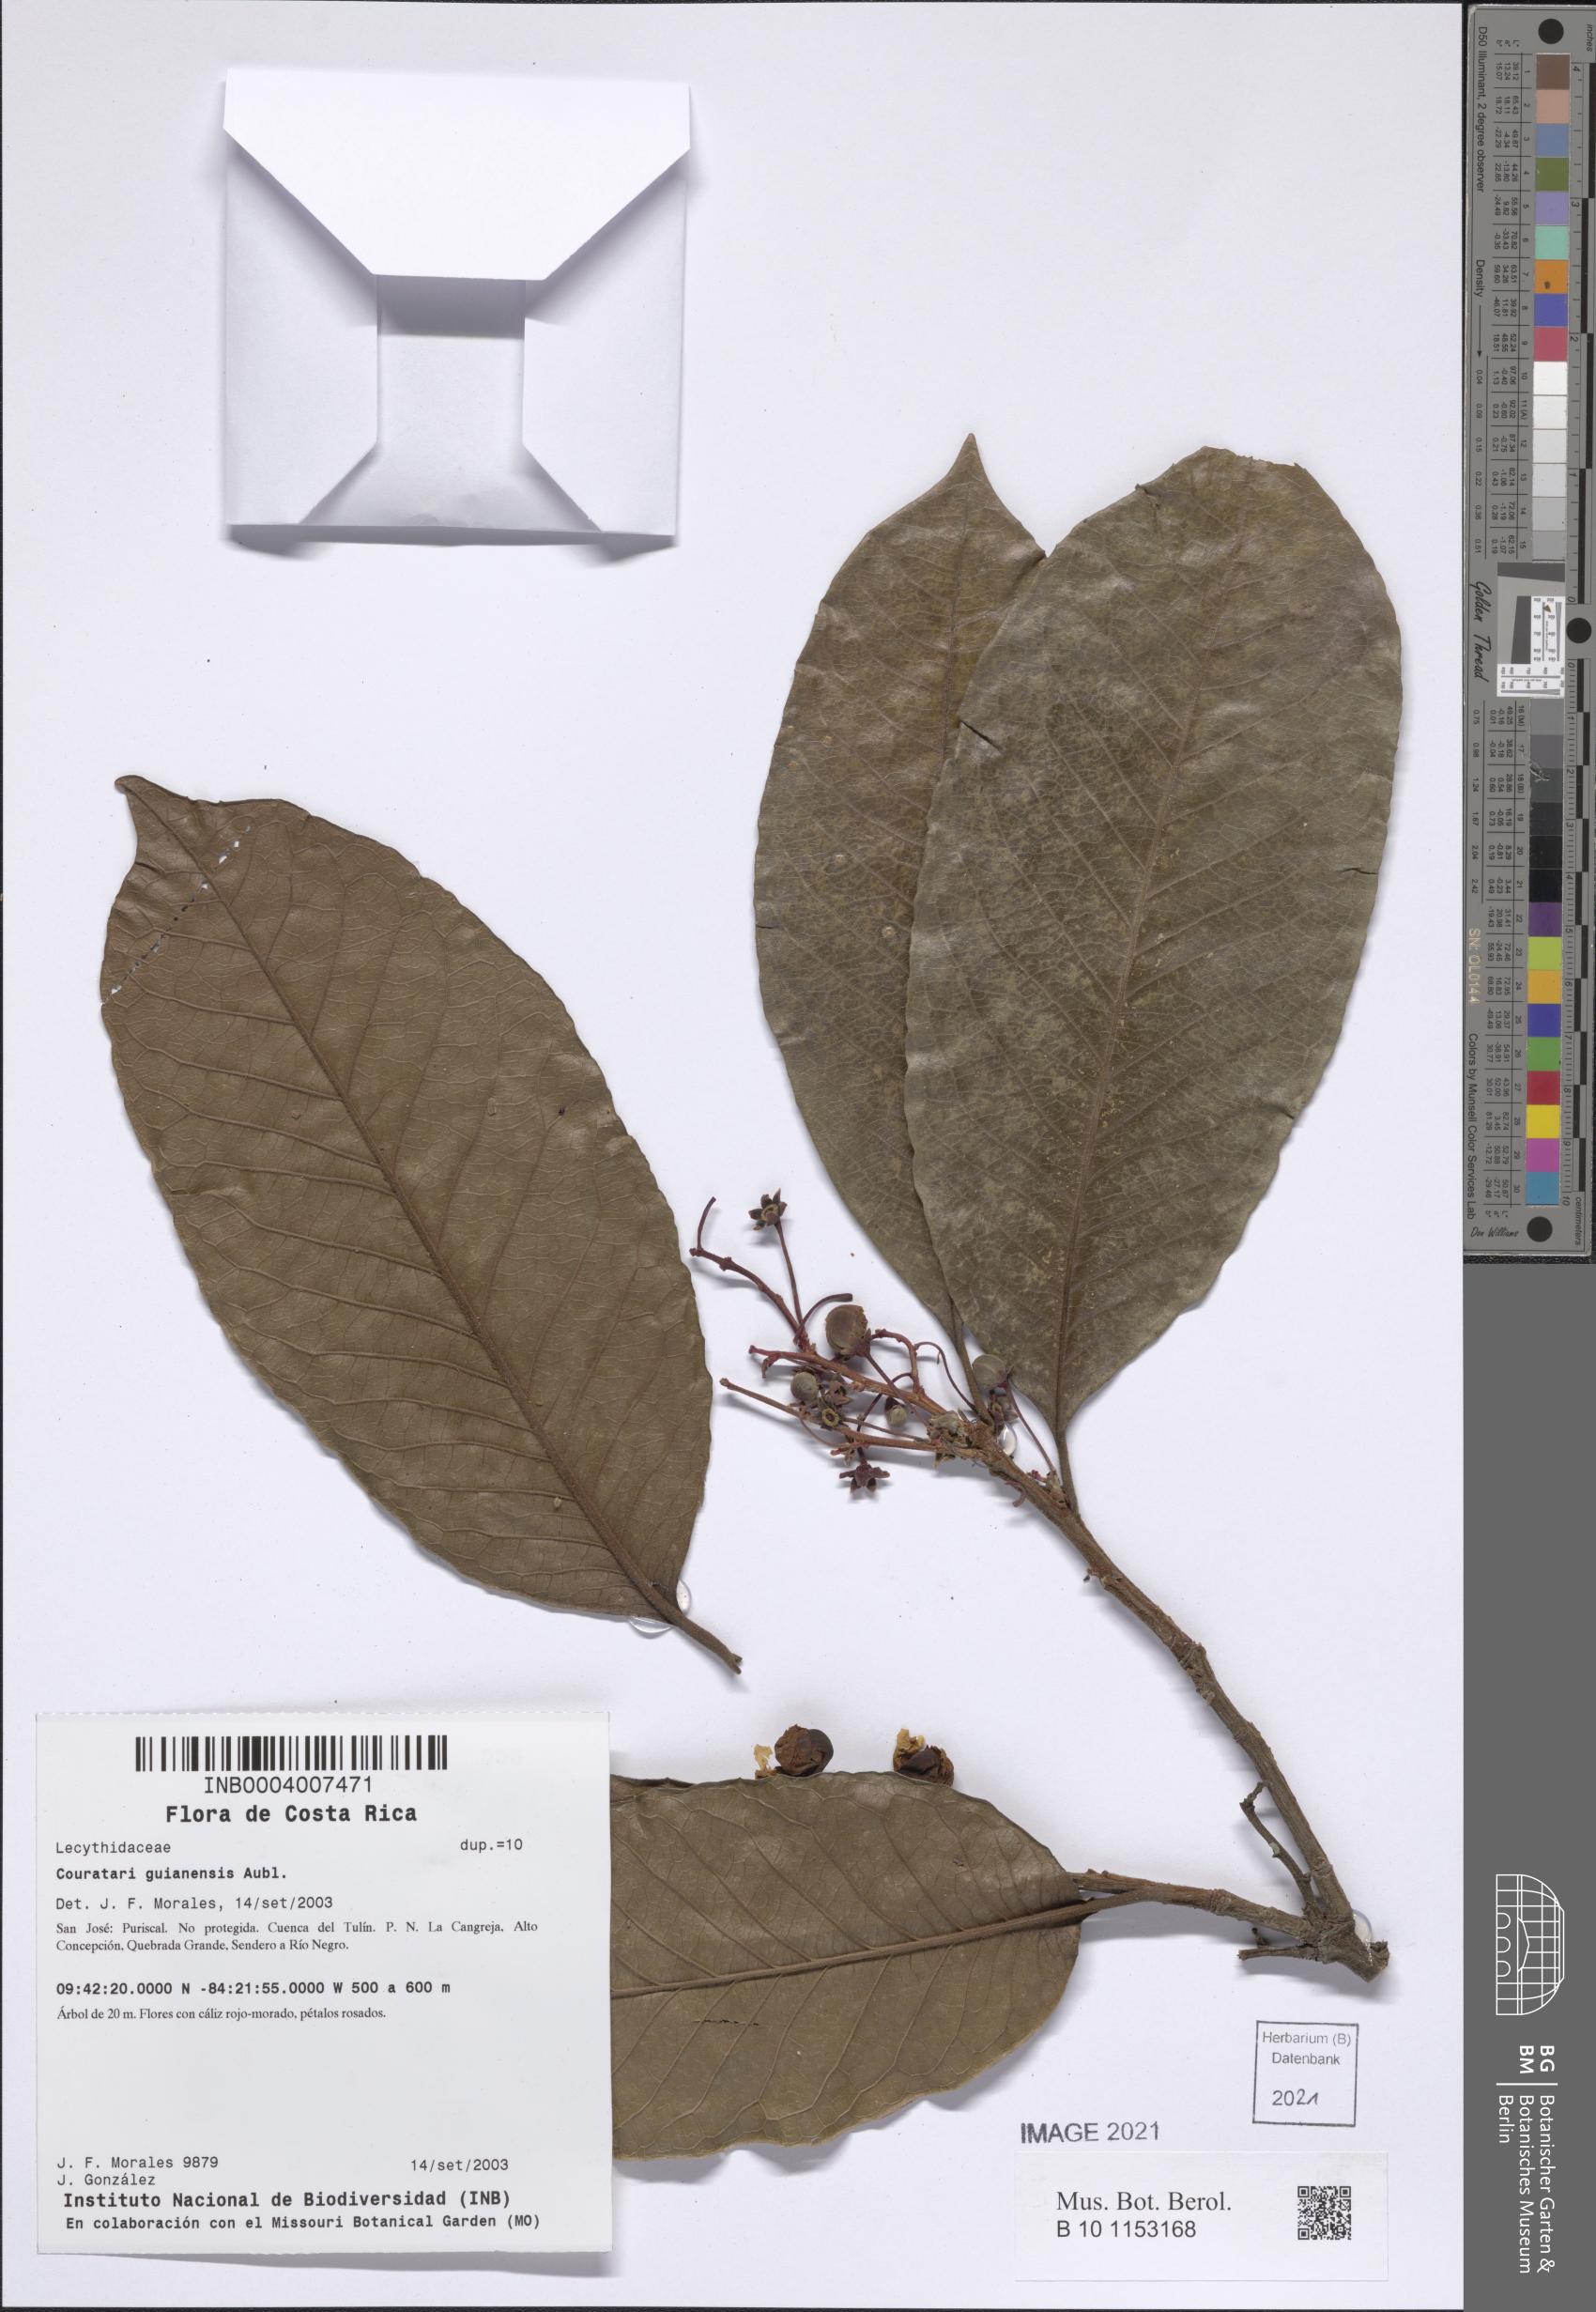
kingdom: Plantae
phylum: Tracheophyta
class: Magnoliopsida
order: Ericales
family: Lecythidaceae
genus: Couratari
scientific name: Couratari guianensis
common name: Fine-leaf wadara
